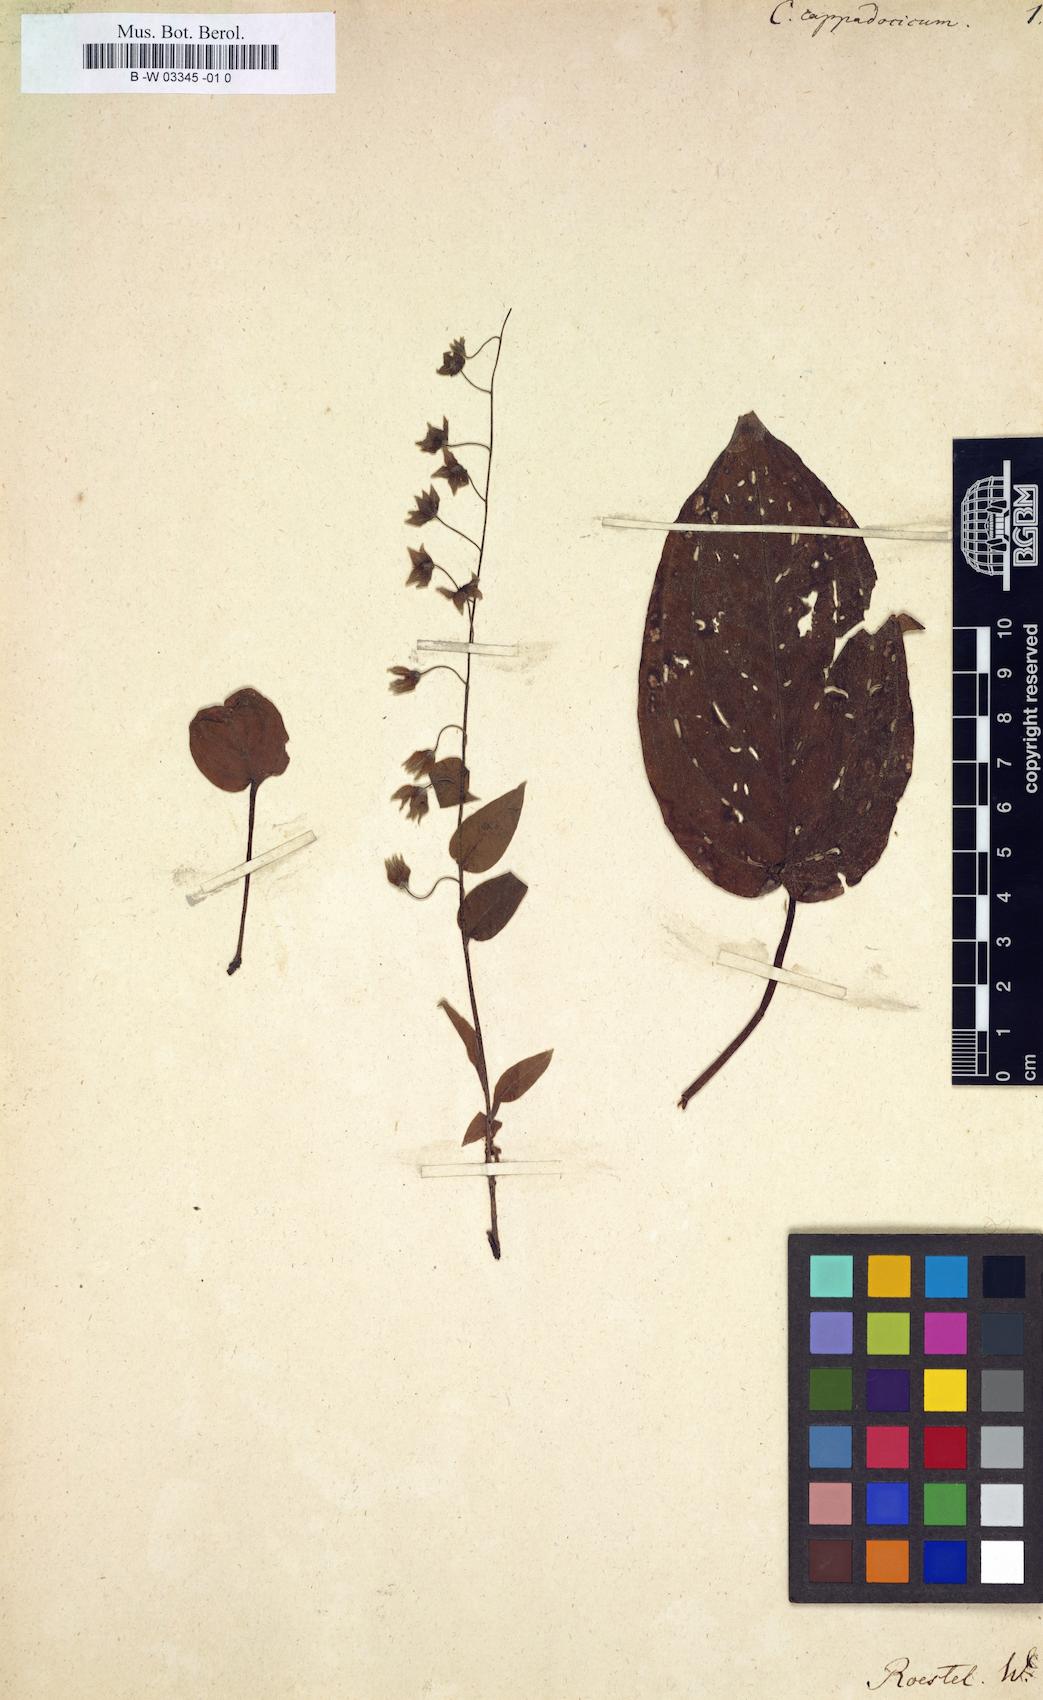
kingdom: Plantae
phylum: Tracheophyta
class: Magnoliopsida
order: Boraginales
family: Boraginaceae
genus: Omphalodes
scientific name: Omphalodes cappadocica
